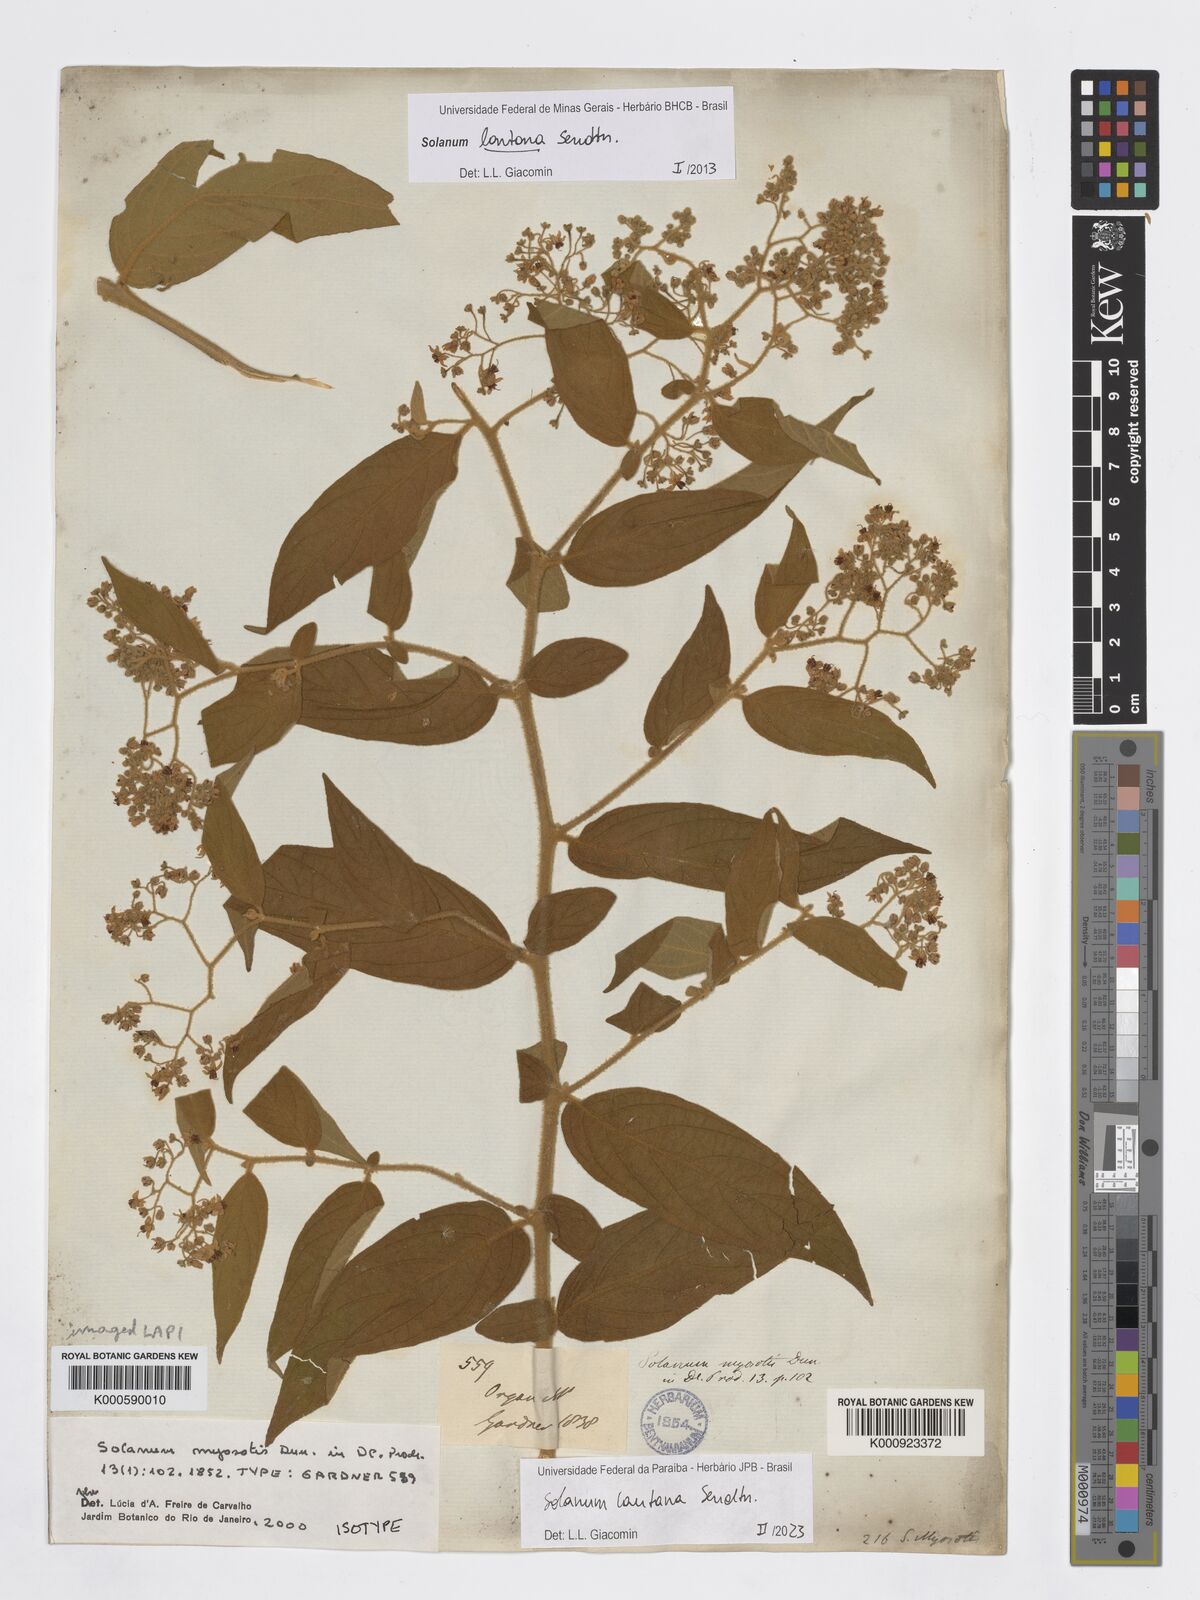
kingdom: Plantae
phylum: Tracheophyta
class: Magnoliopsida
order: Solanales
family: Solanaceae
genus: Solanum
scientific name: Solanum lantana
